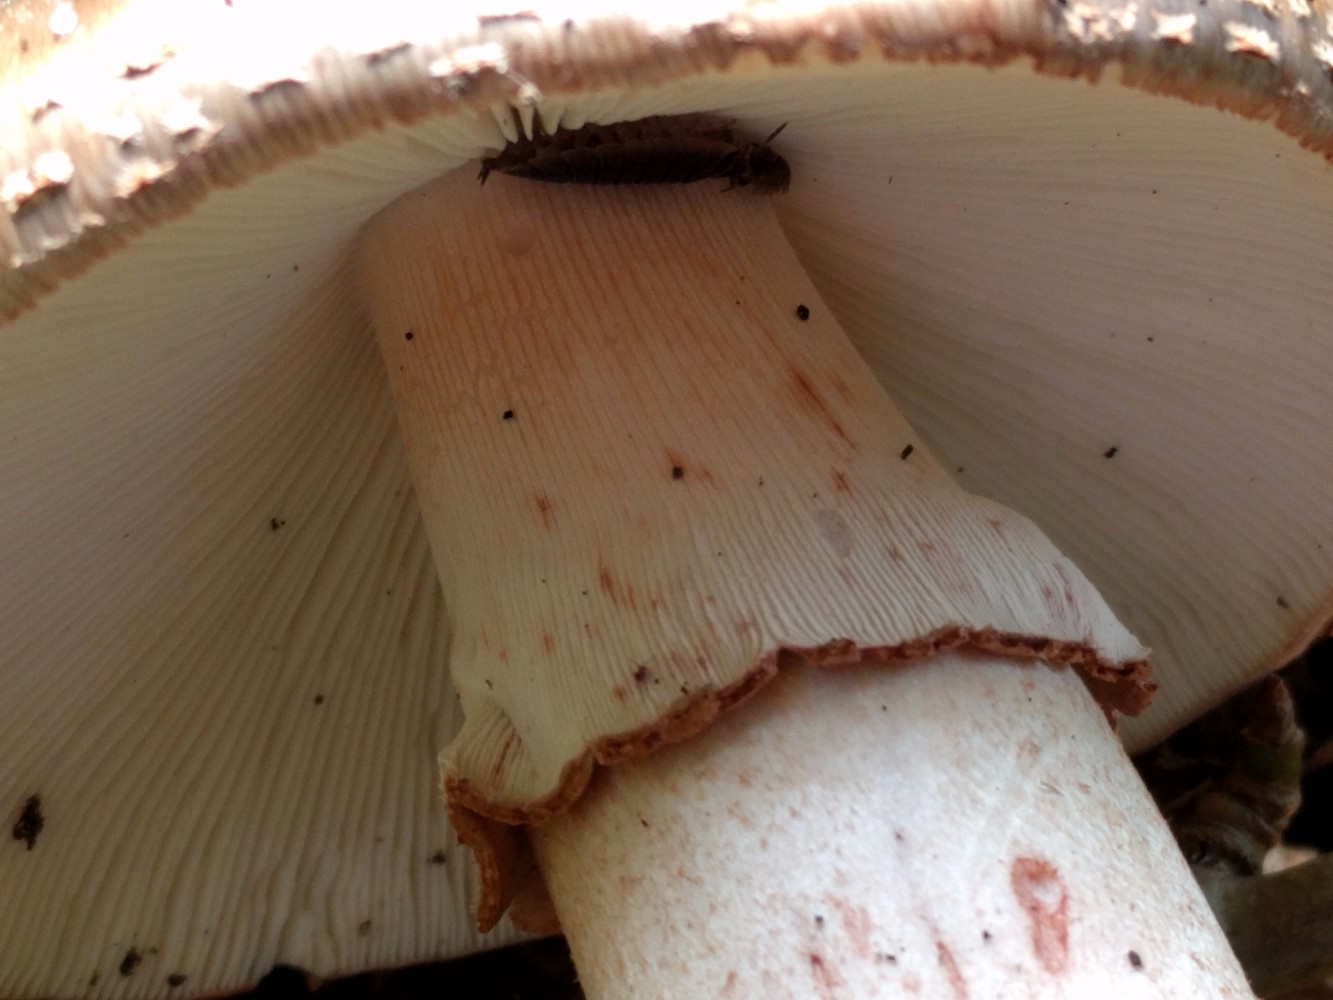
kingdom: Fungi
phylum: Basidiomycota
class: Agaricomycetes
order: Agaricales
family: Amanitaceae
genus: Amanita
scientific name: Amanita rubescens
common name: rødmende fluesvamp
